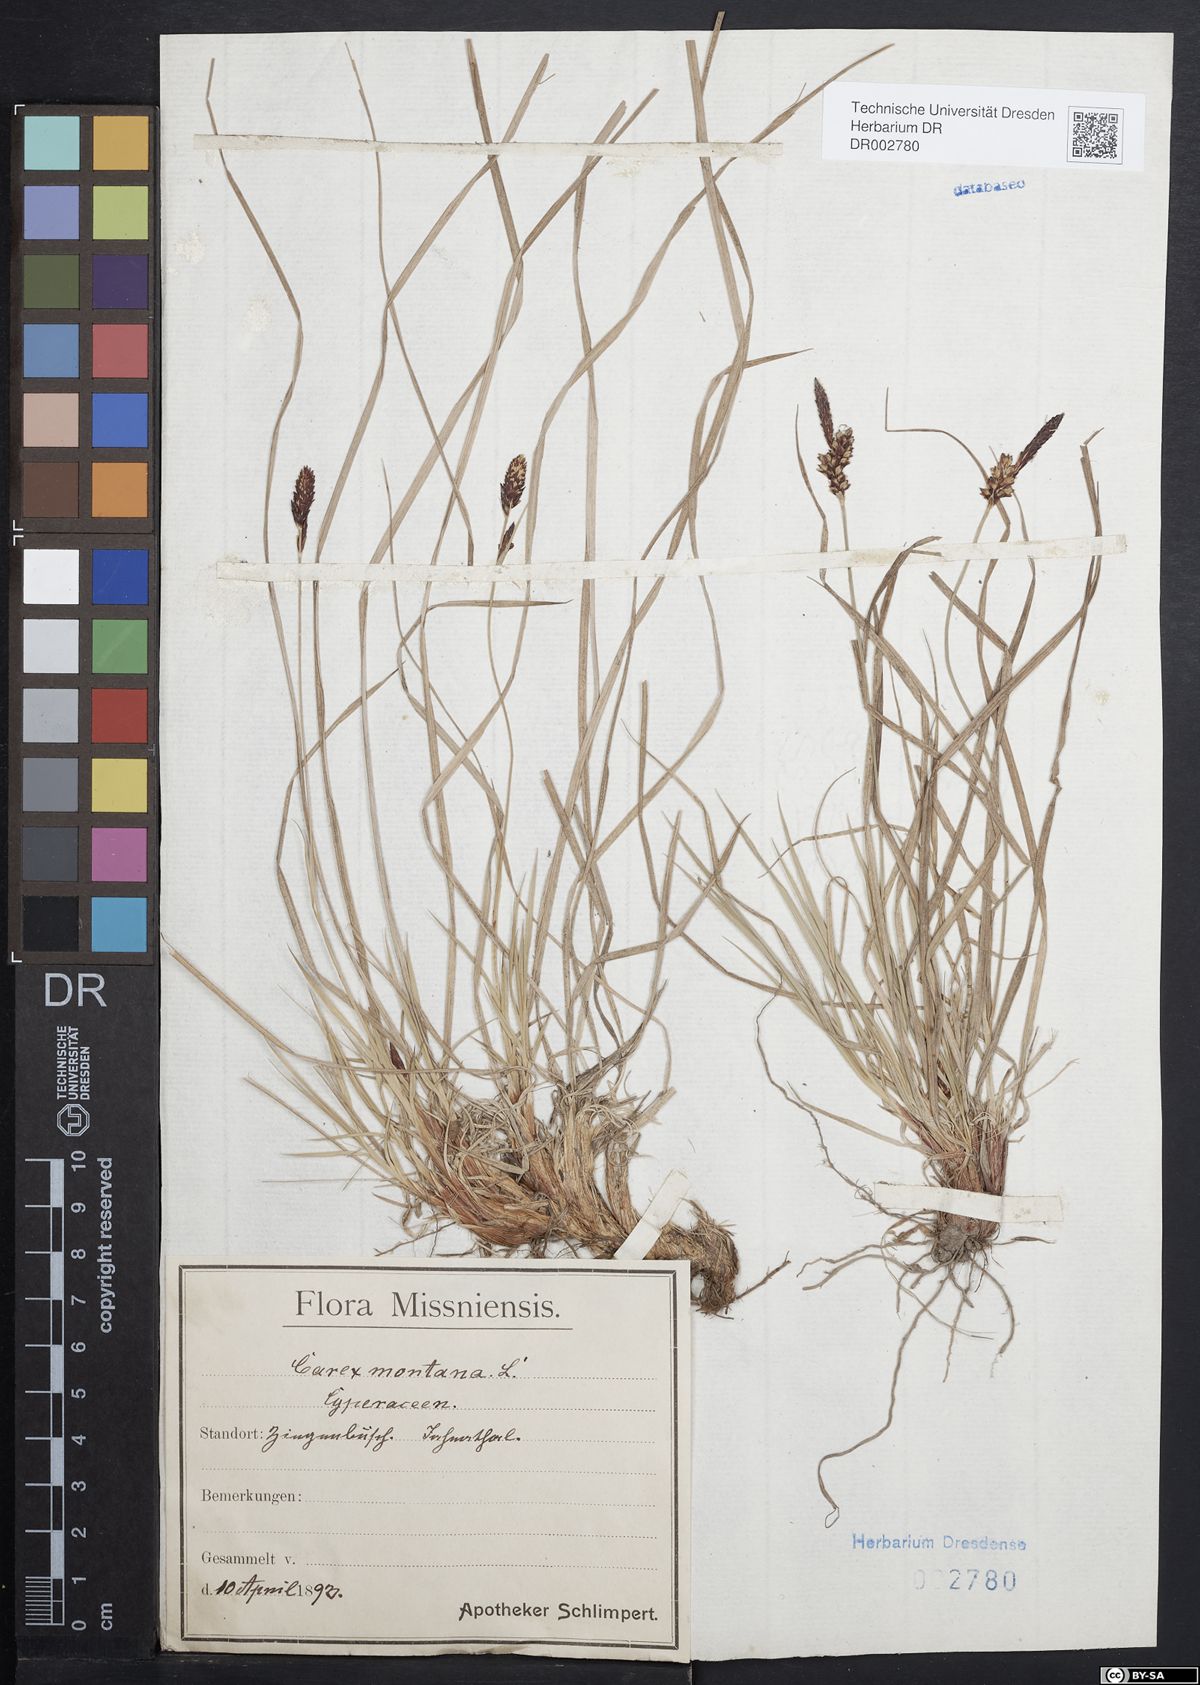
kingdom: Plantae
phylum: Tracheophyta
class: Liliopsida
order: Poales
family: Cyperaceae
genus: Carex
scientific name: Carex montana
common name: Soft-leaved sedge
